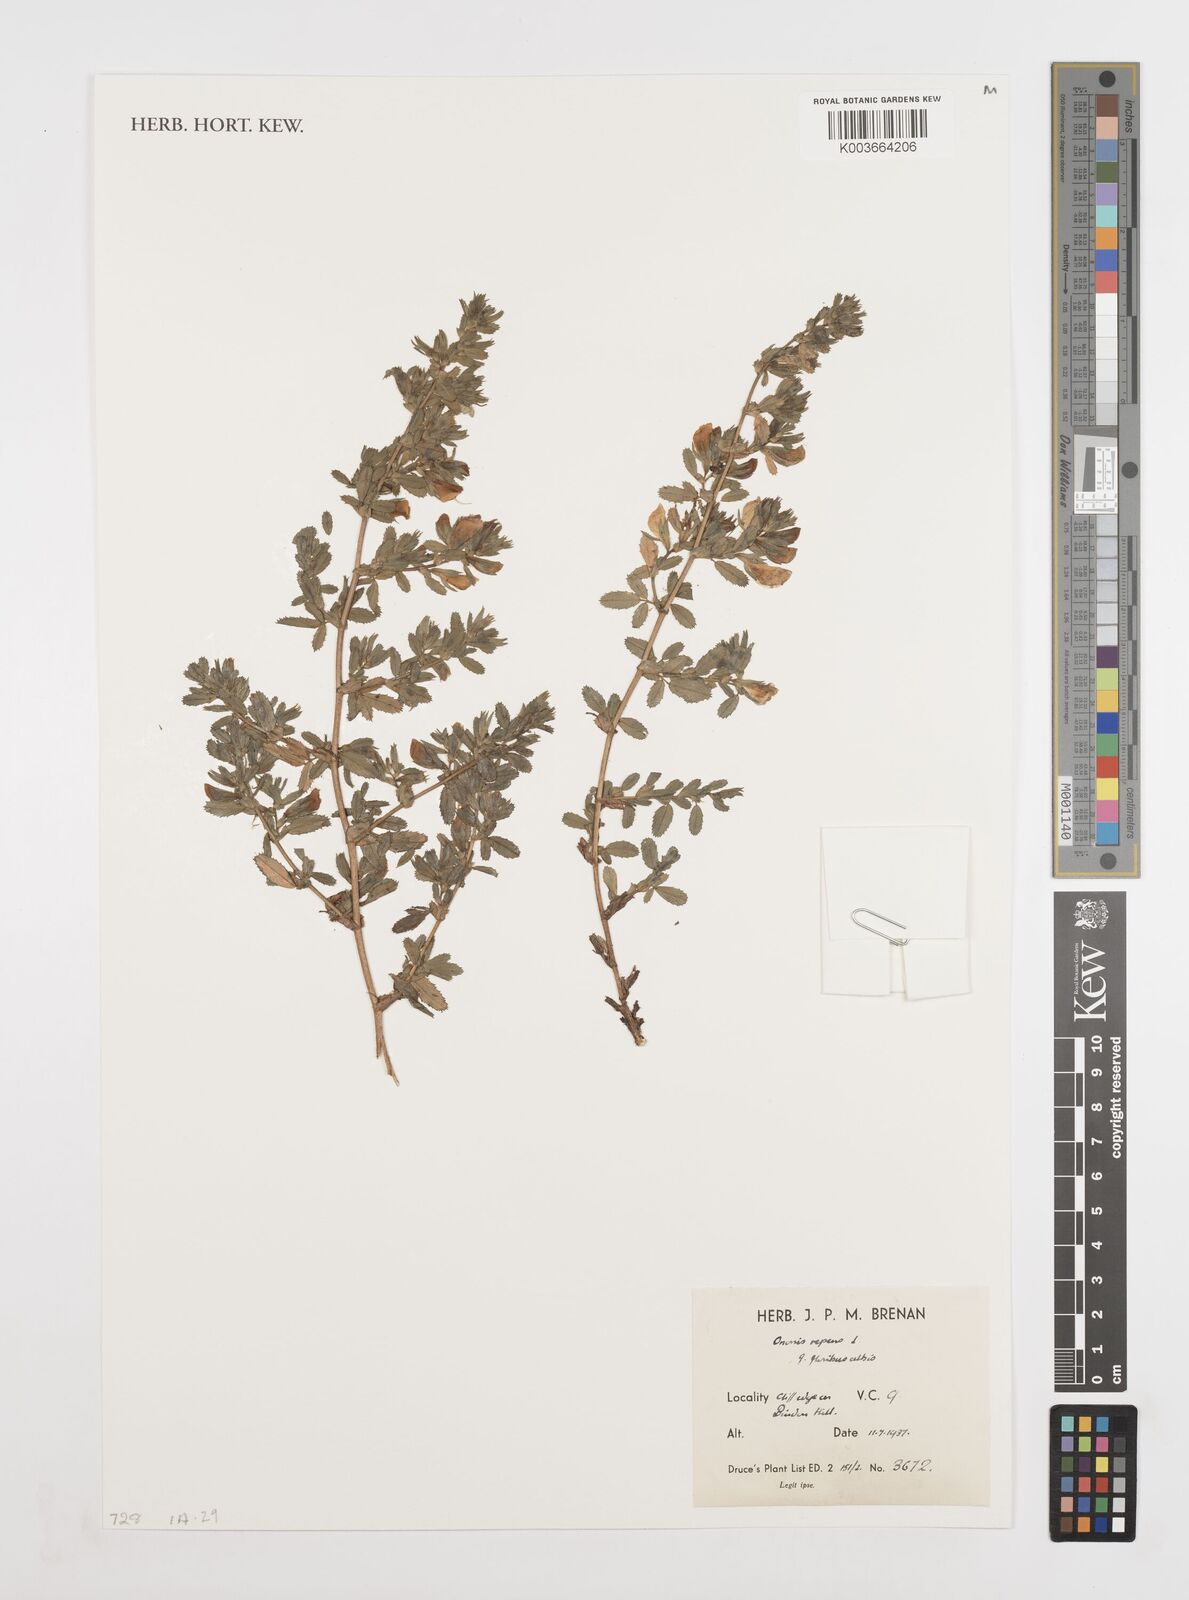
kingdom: Plantae
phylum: Tracheophyta
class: Magnoliopsida
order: Fabales
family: Fabaceae
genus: Ononis
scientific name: Ononis spinosa
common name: Spiny restharrow
